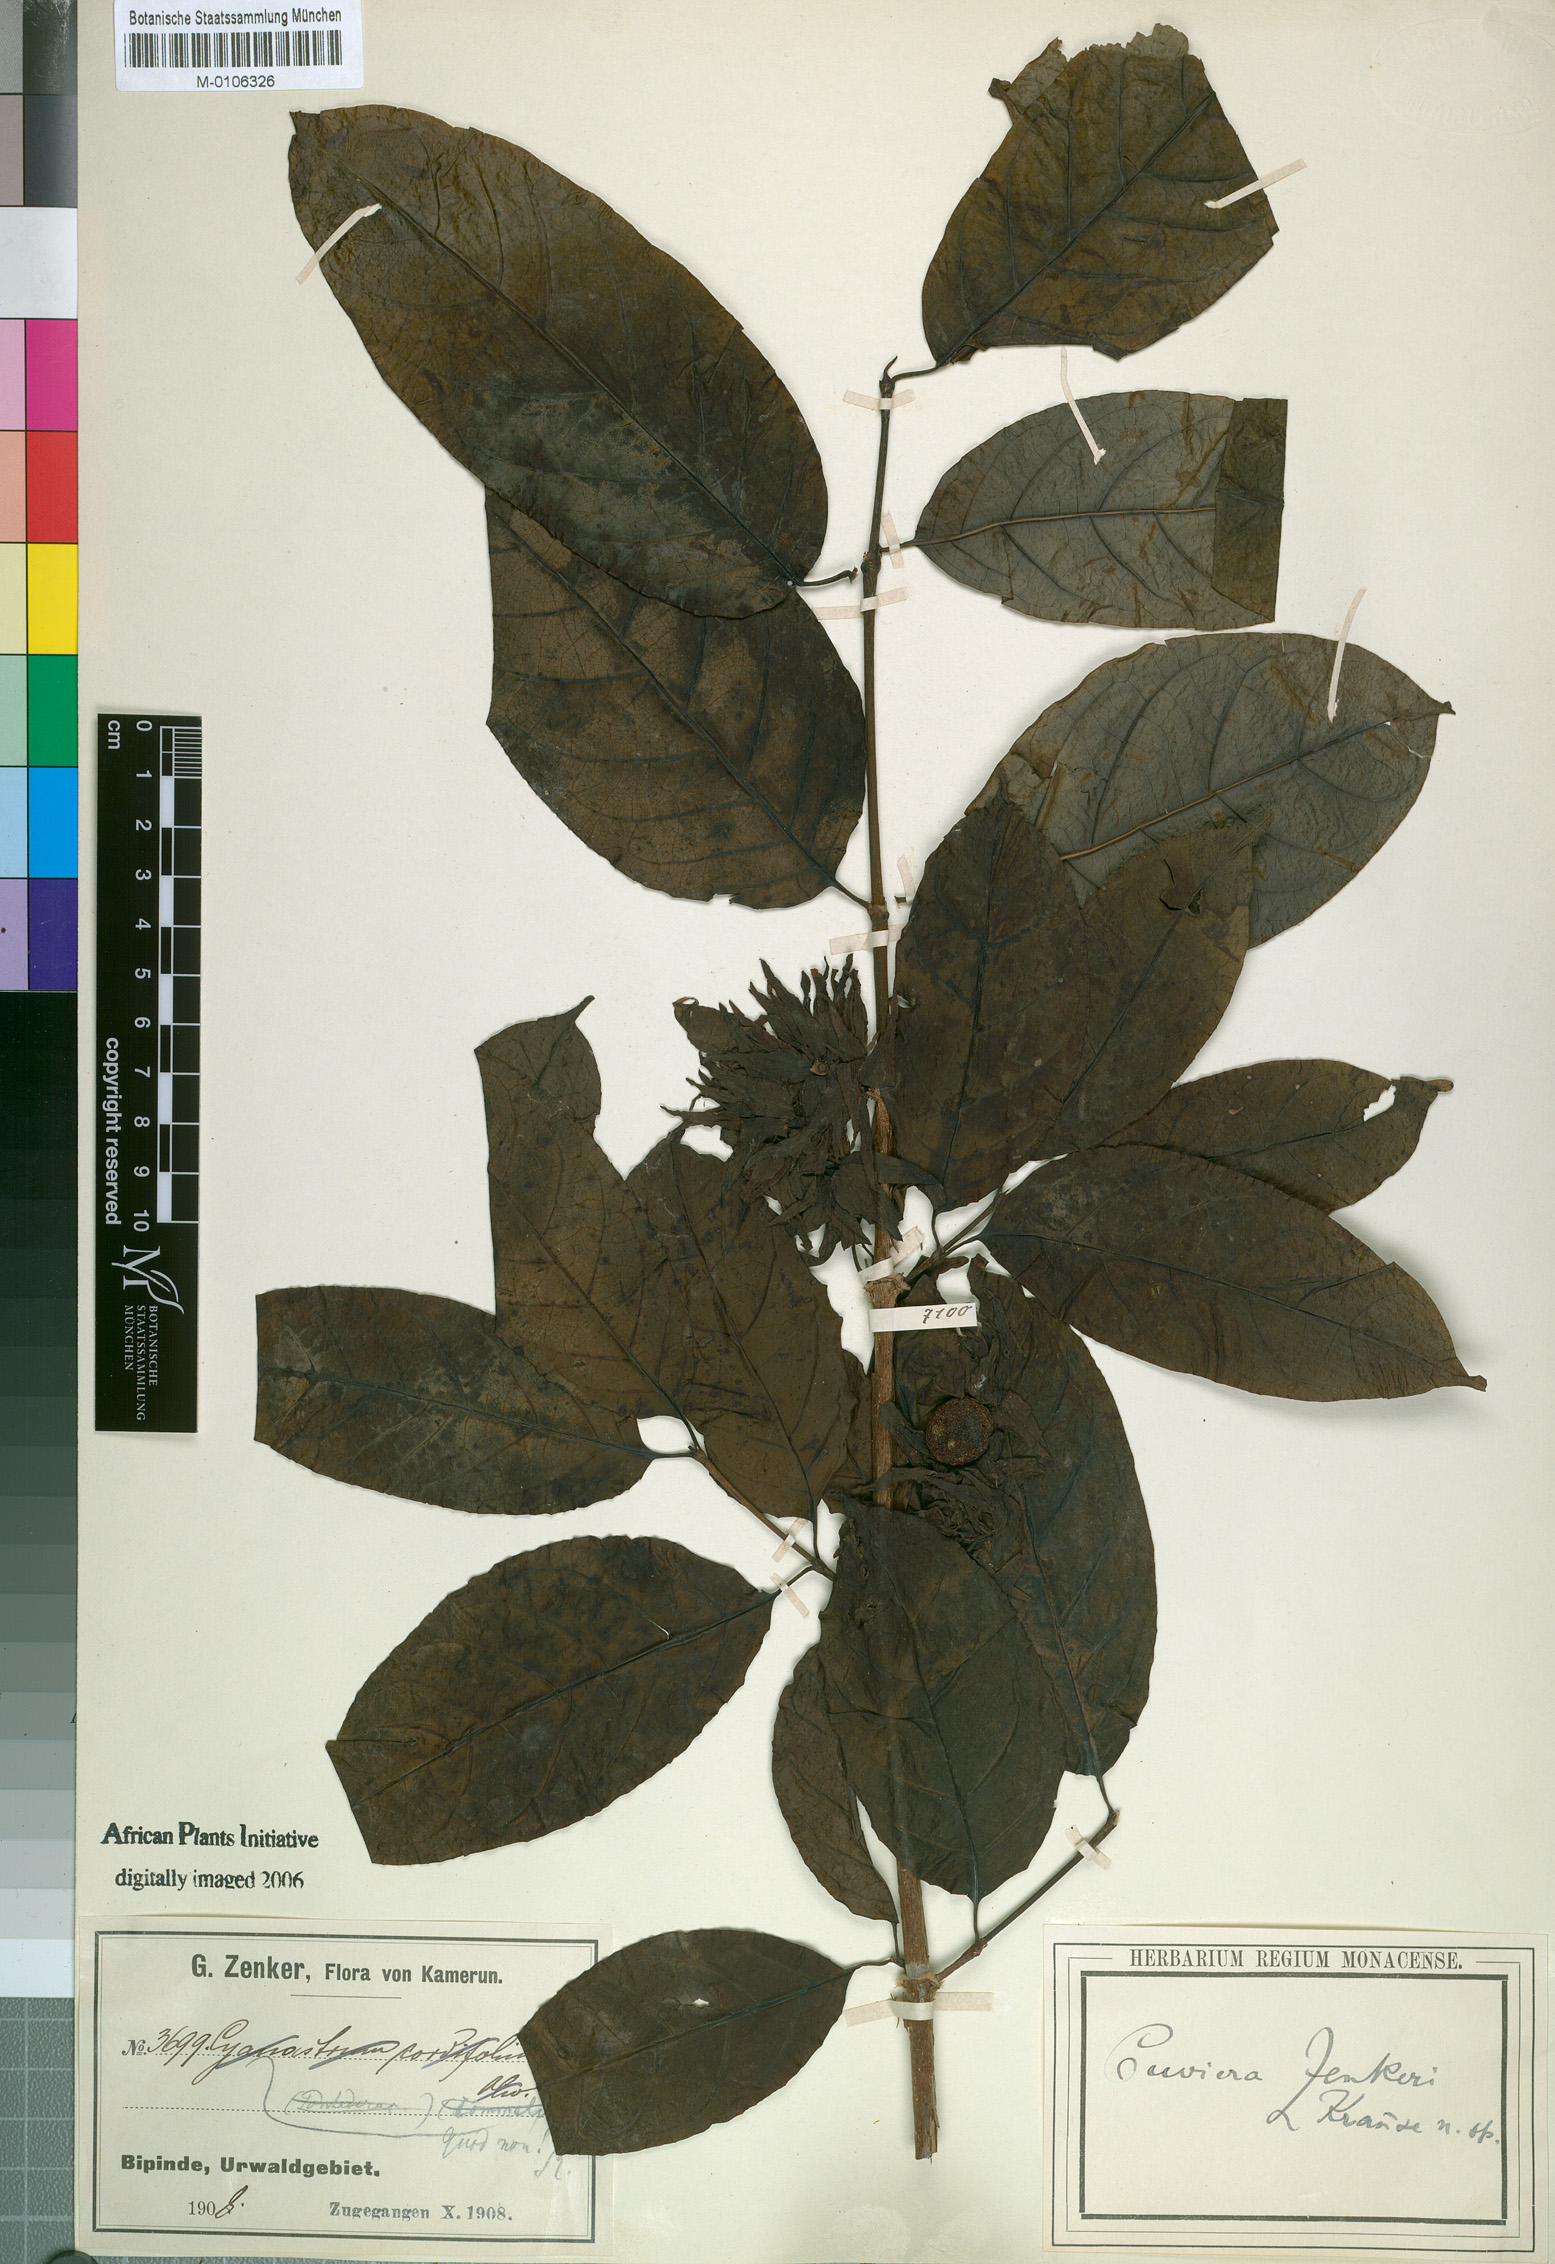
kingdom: Plantae
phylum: Tracheophyta
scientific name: Tracheophyta
